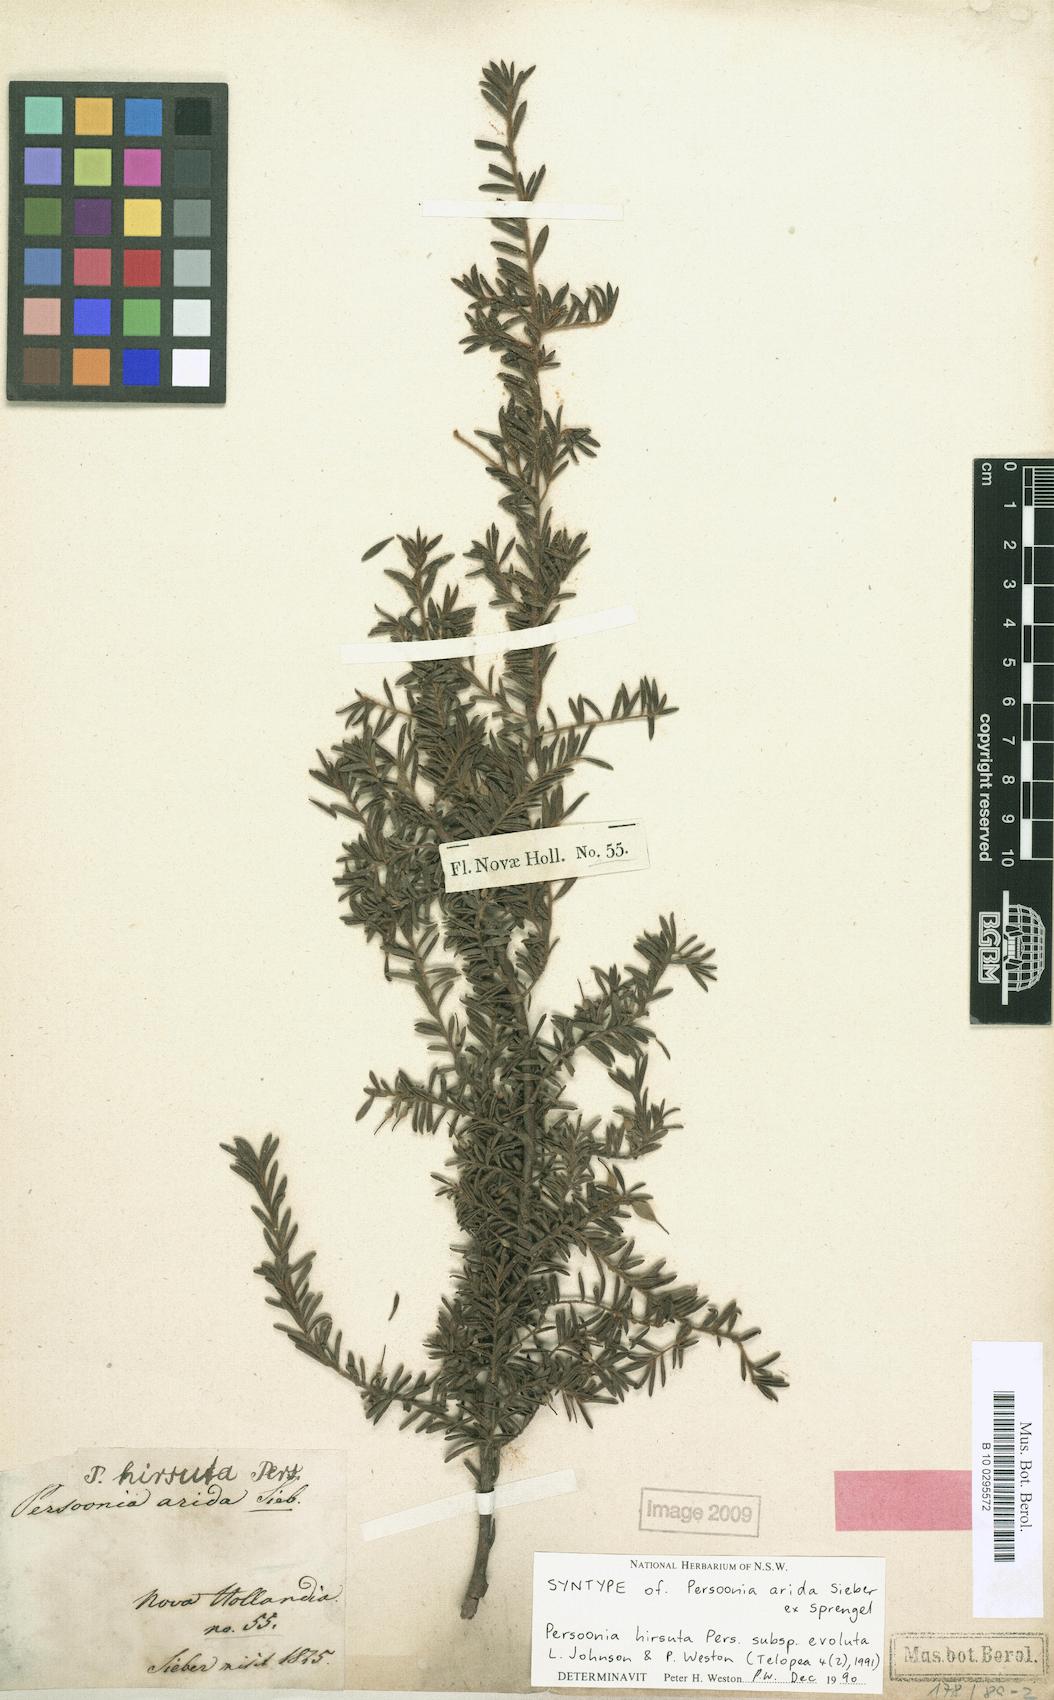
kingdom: Plantae
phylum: Tracheophyta
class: Magnoliopsida
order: Proteales
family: Proteaceae
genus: Persoonia
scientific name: Persoonia hirsuta
